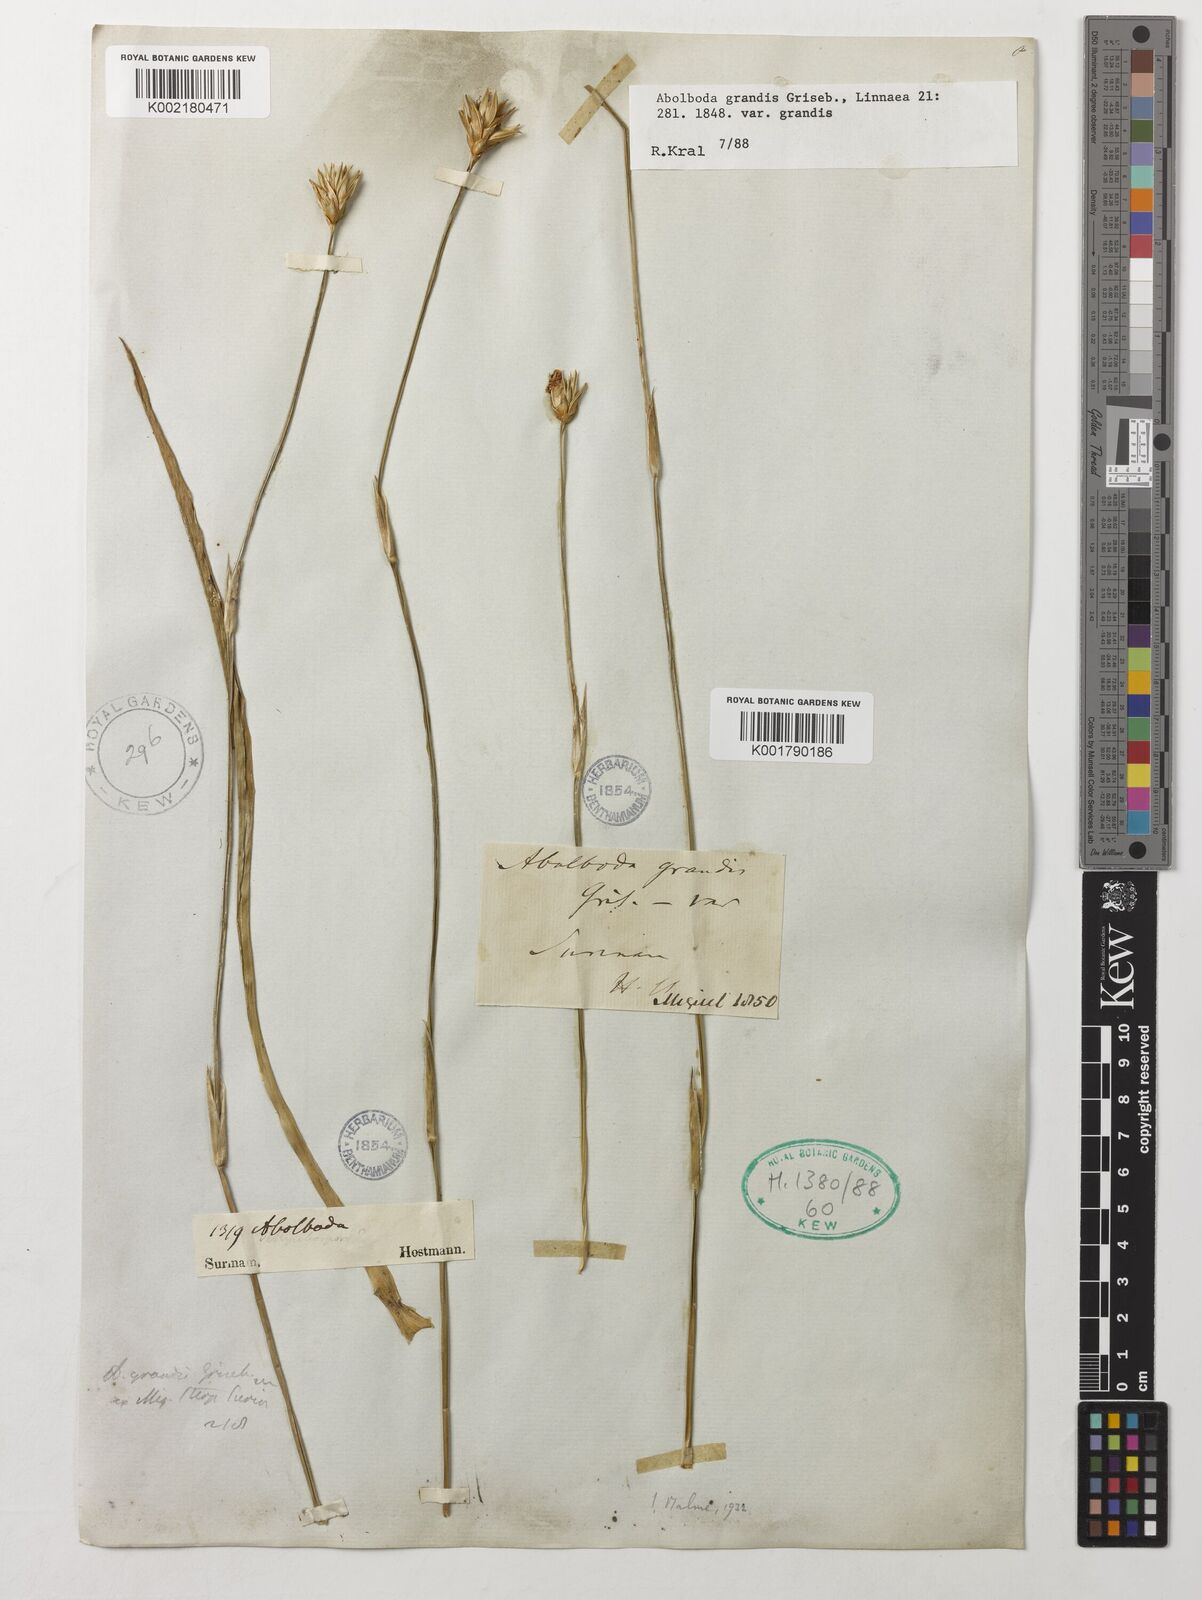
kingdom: Plantae
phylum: Tracheophyta
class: Liliopsida
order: Poales
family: Xyridaceae
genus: Abolboda
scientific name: Abolboda grandis
